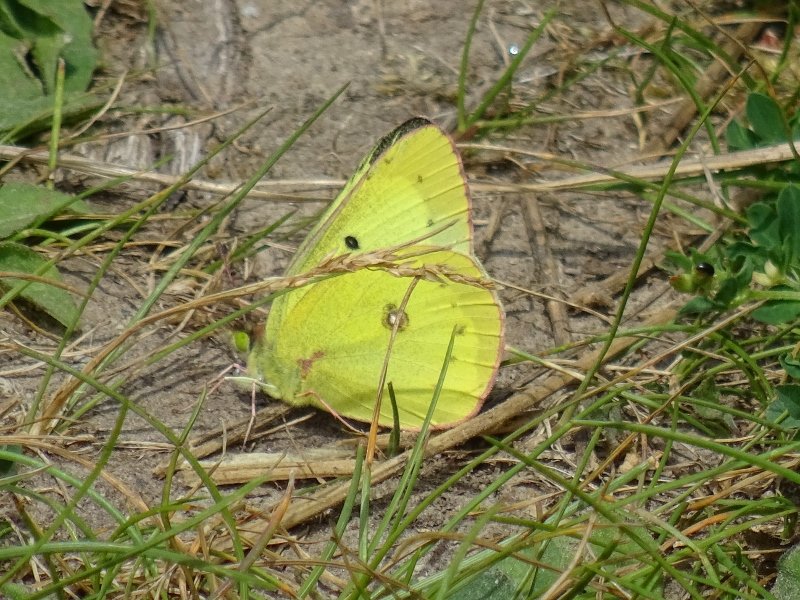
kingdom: Animalia
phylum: Arthropoda
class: Insecta
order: Lepidoptera
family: Pieridae
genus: Colias
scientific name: Colias philodice
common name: Clouded Sulphur
